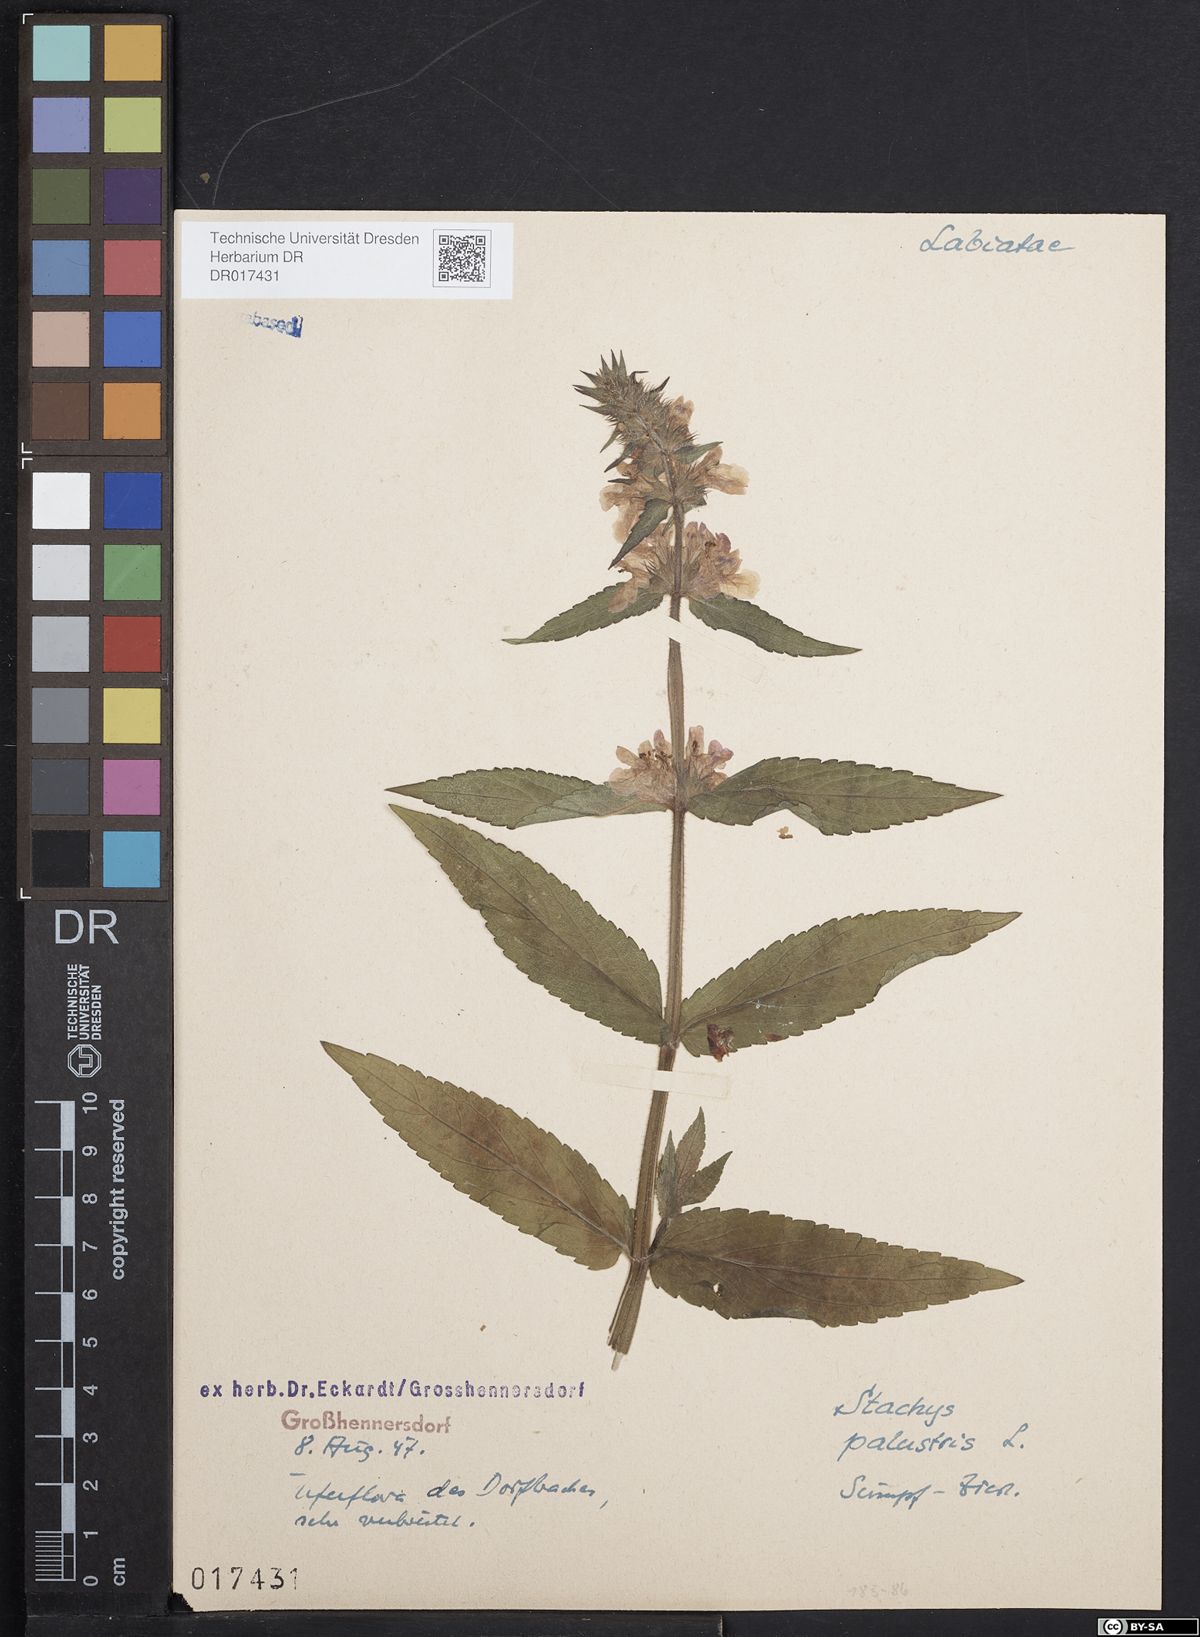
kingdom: Plantae
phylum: Tracheophyta
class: Magnoliopsida
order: Lamiales
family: Lamiaceae
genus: Stachys
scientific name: Stachys palustris
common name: Marsh woundwort
